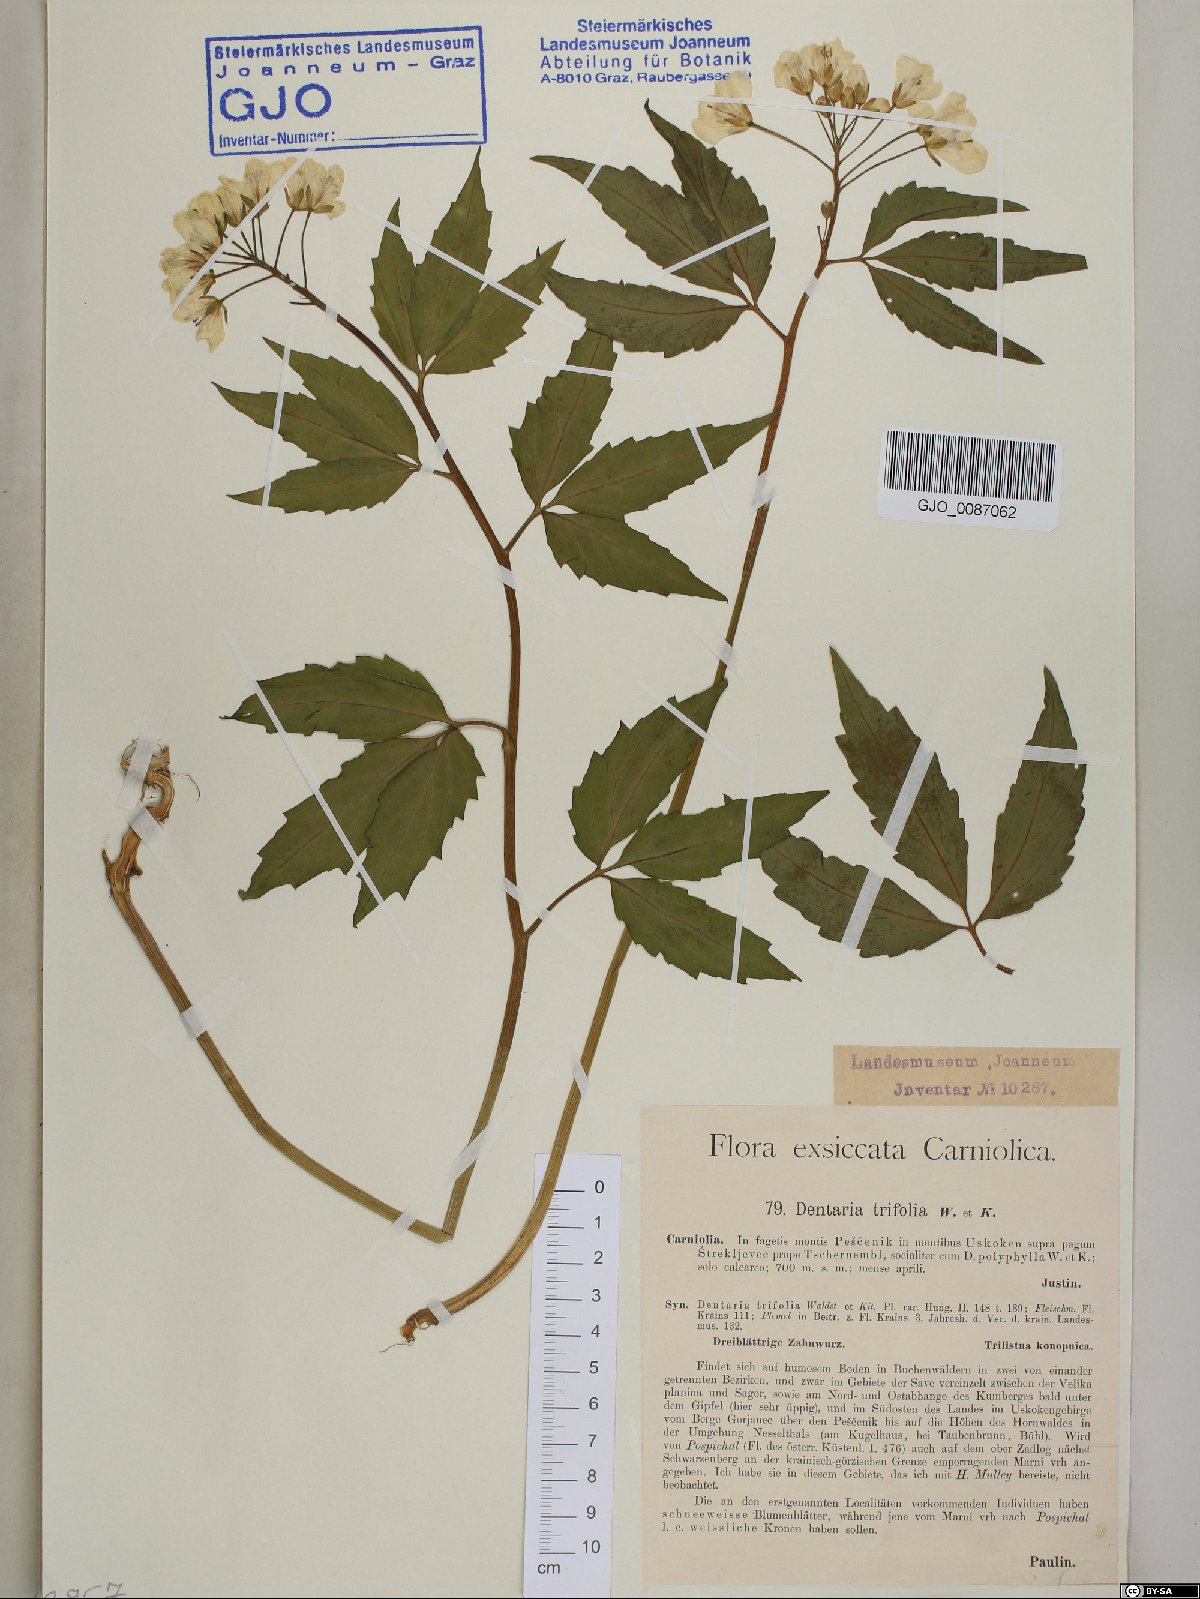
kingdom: Plantae
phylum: Tracheophyta
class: Magnoliopsida
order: Brassicales
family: Brassicaceae
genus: Cardamine
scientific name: Cardamine waldsteinii
